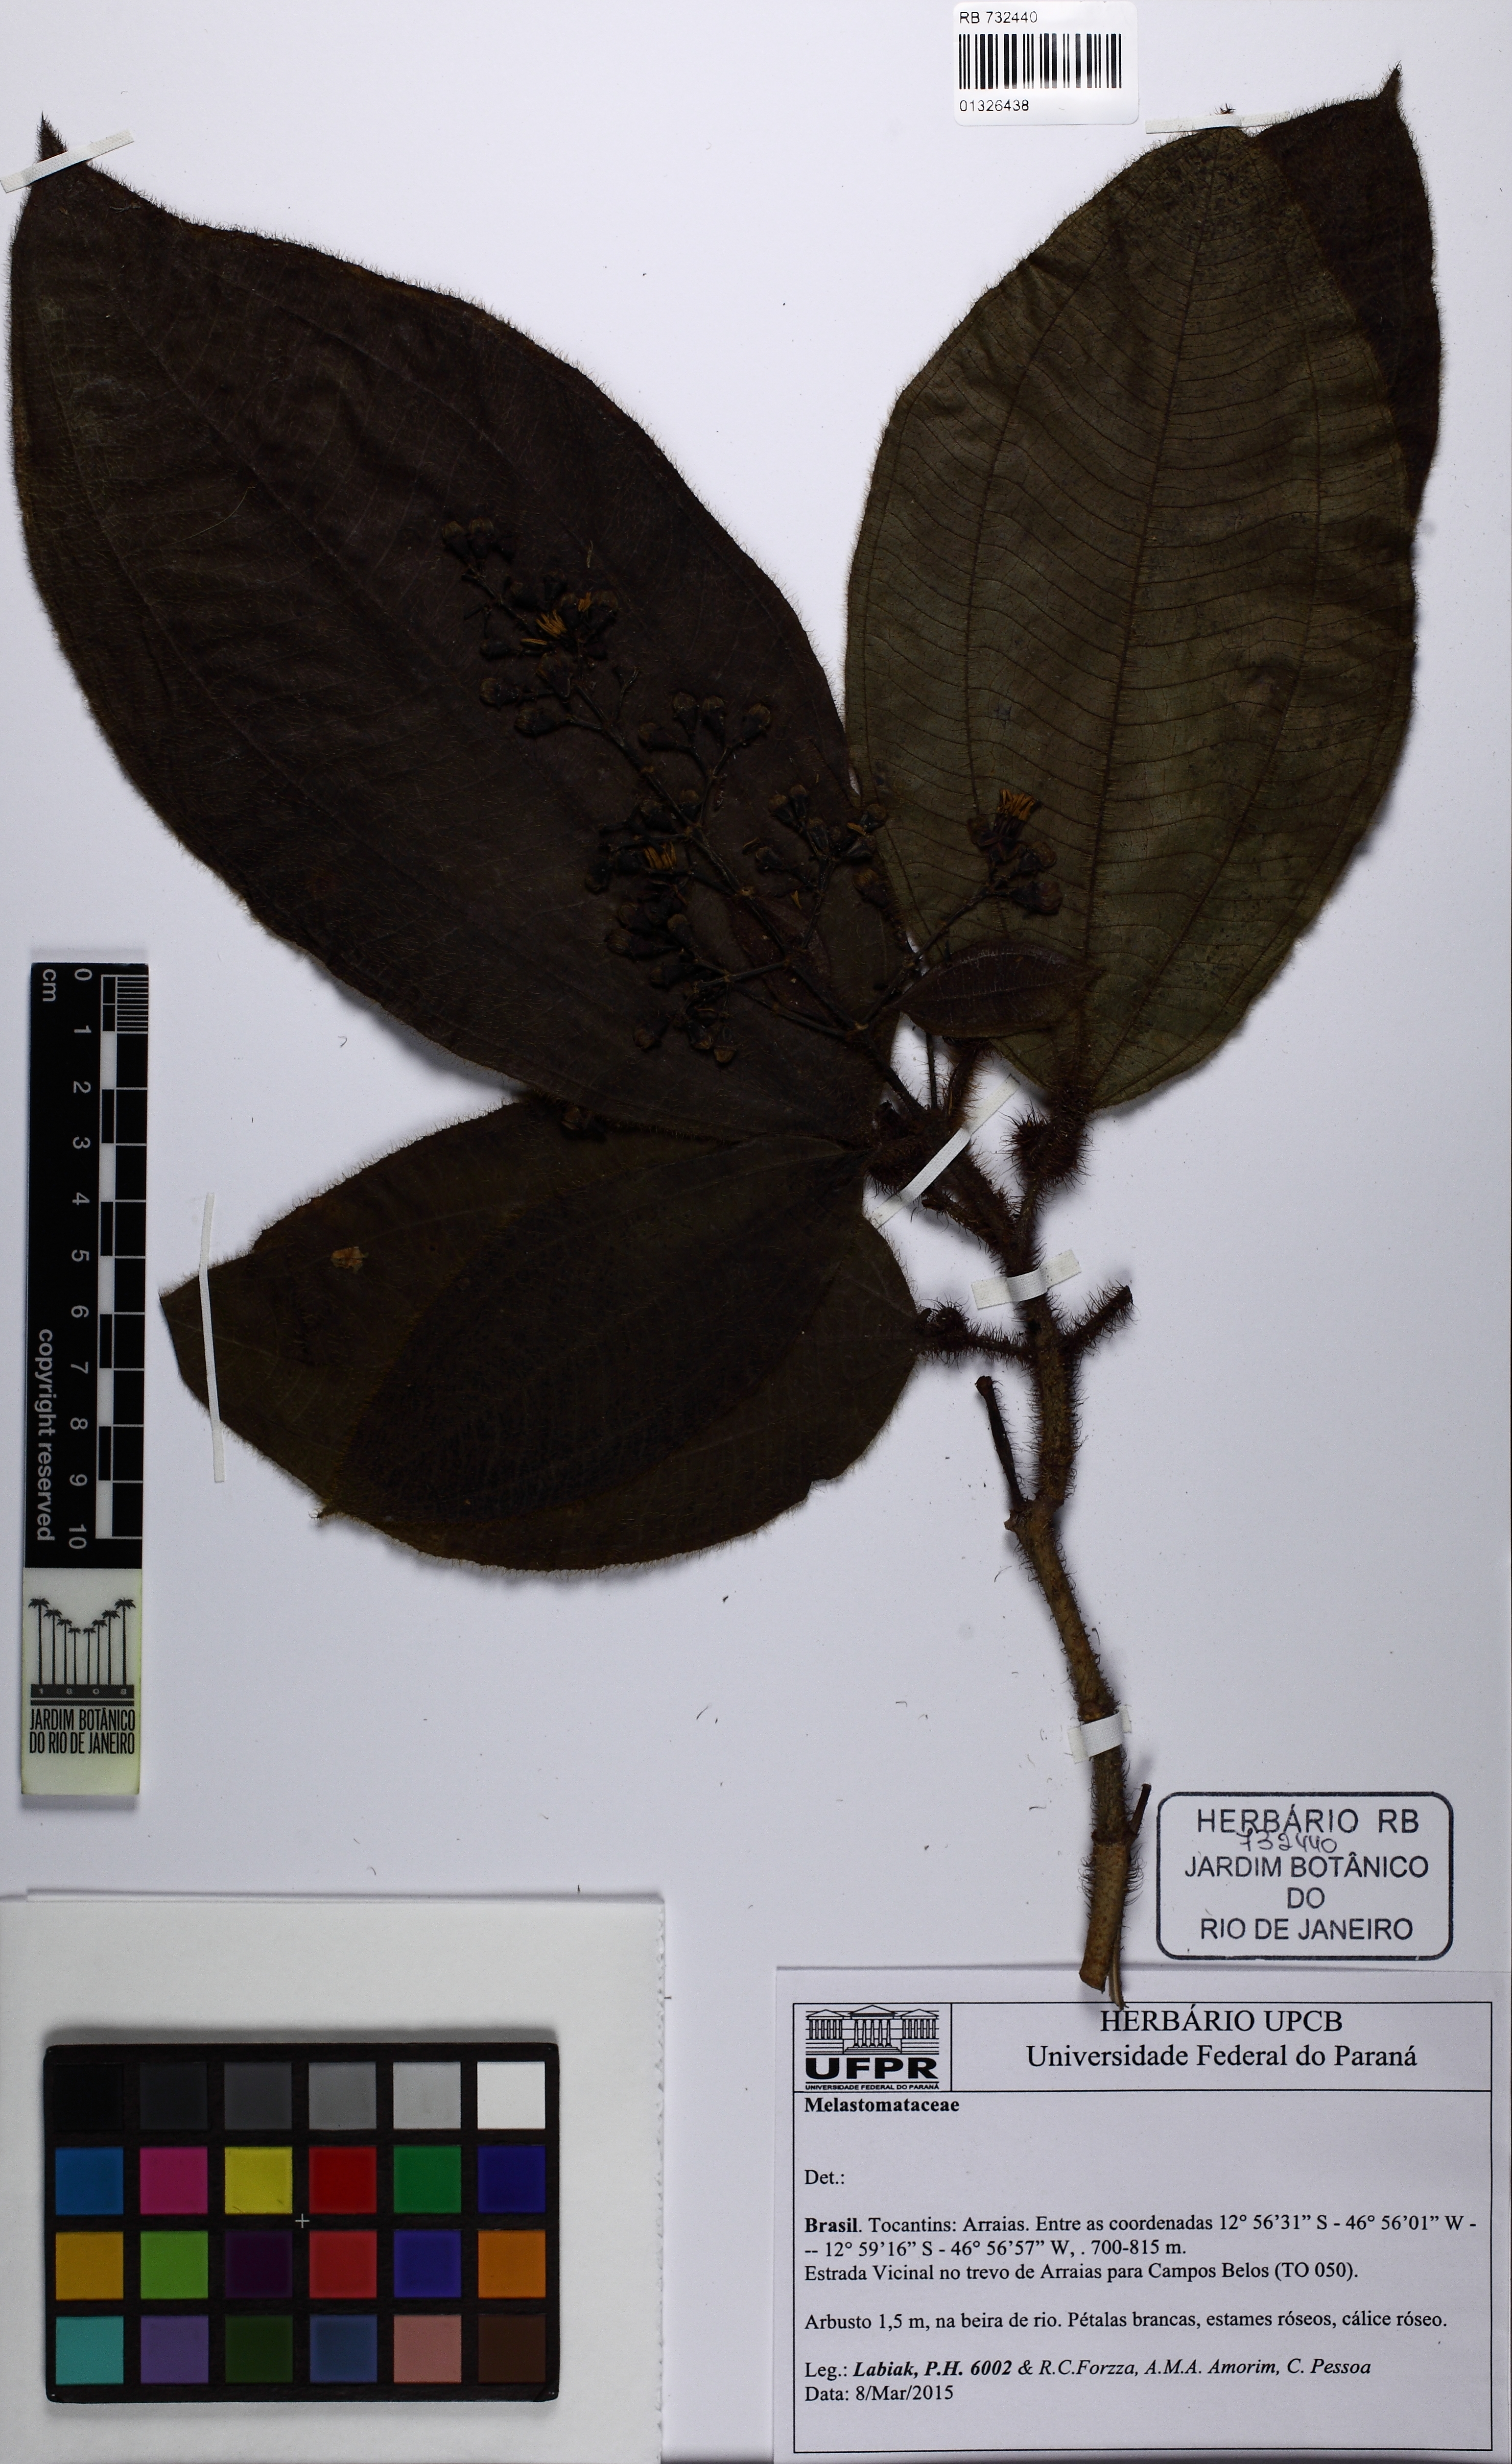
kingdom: Plantae
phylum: Tracheophyta
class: Magnoliopsida
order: Myrtales
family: Melastomataceae
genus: Miconia
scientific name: Miconia tococa
